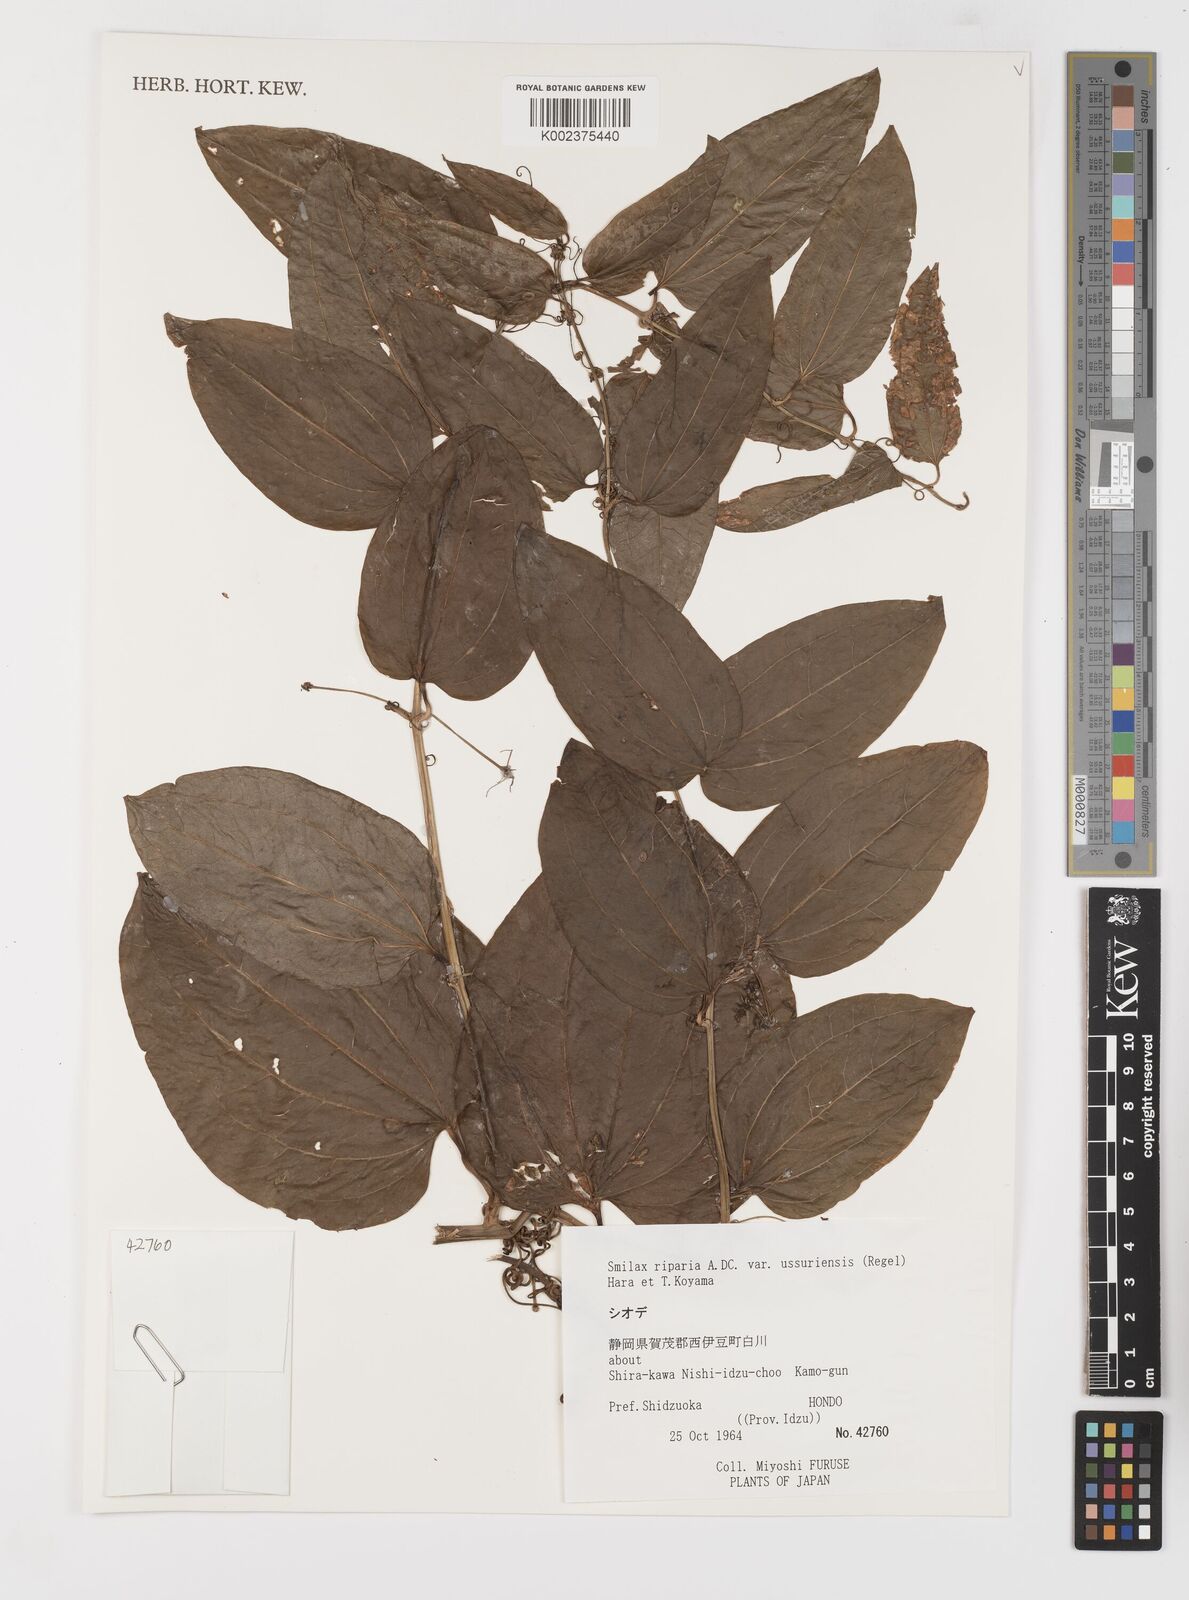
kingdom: Plantae
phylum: Tracheophyta
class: Liliopsida
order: Liliales
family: Smilacaceae
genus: Smilax
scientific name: Smilax riparia
